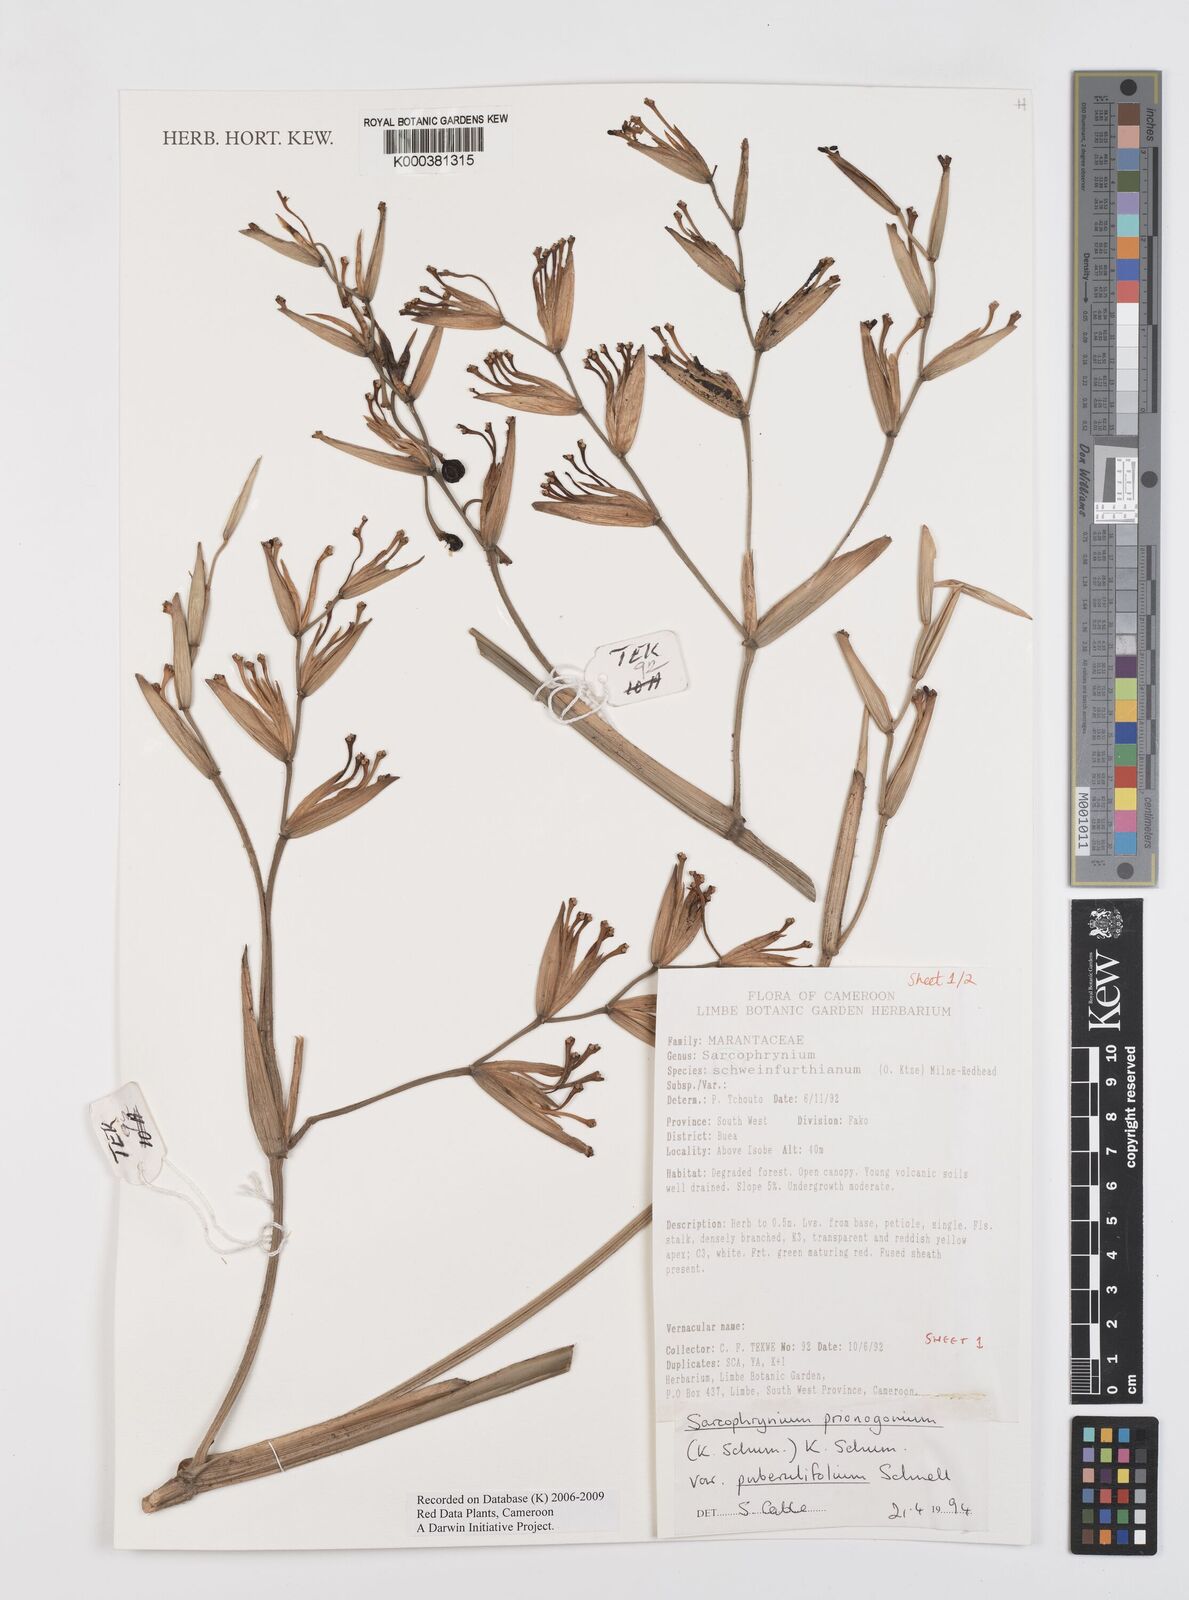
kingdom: Plantae
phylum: Tracheophyta
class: Liliopsida
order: Zingiberales
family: Marantaceae
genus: Sarcophrynium
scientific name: Sarcophrynium prionogonium
